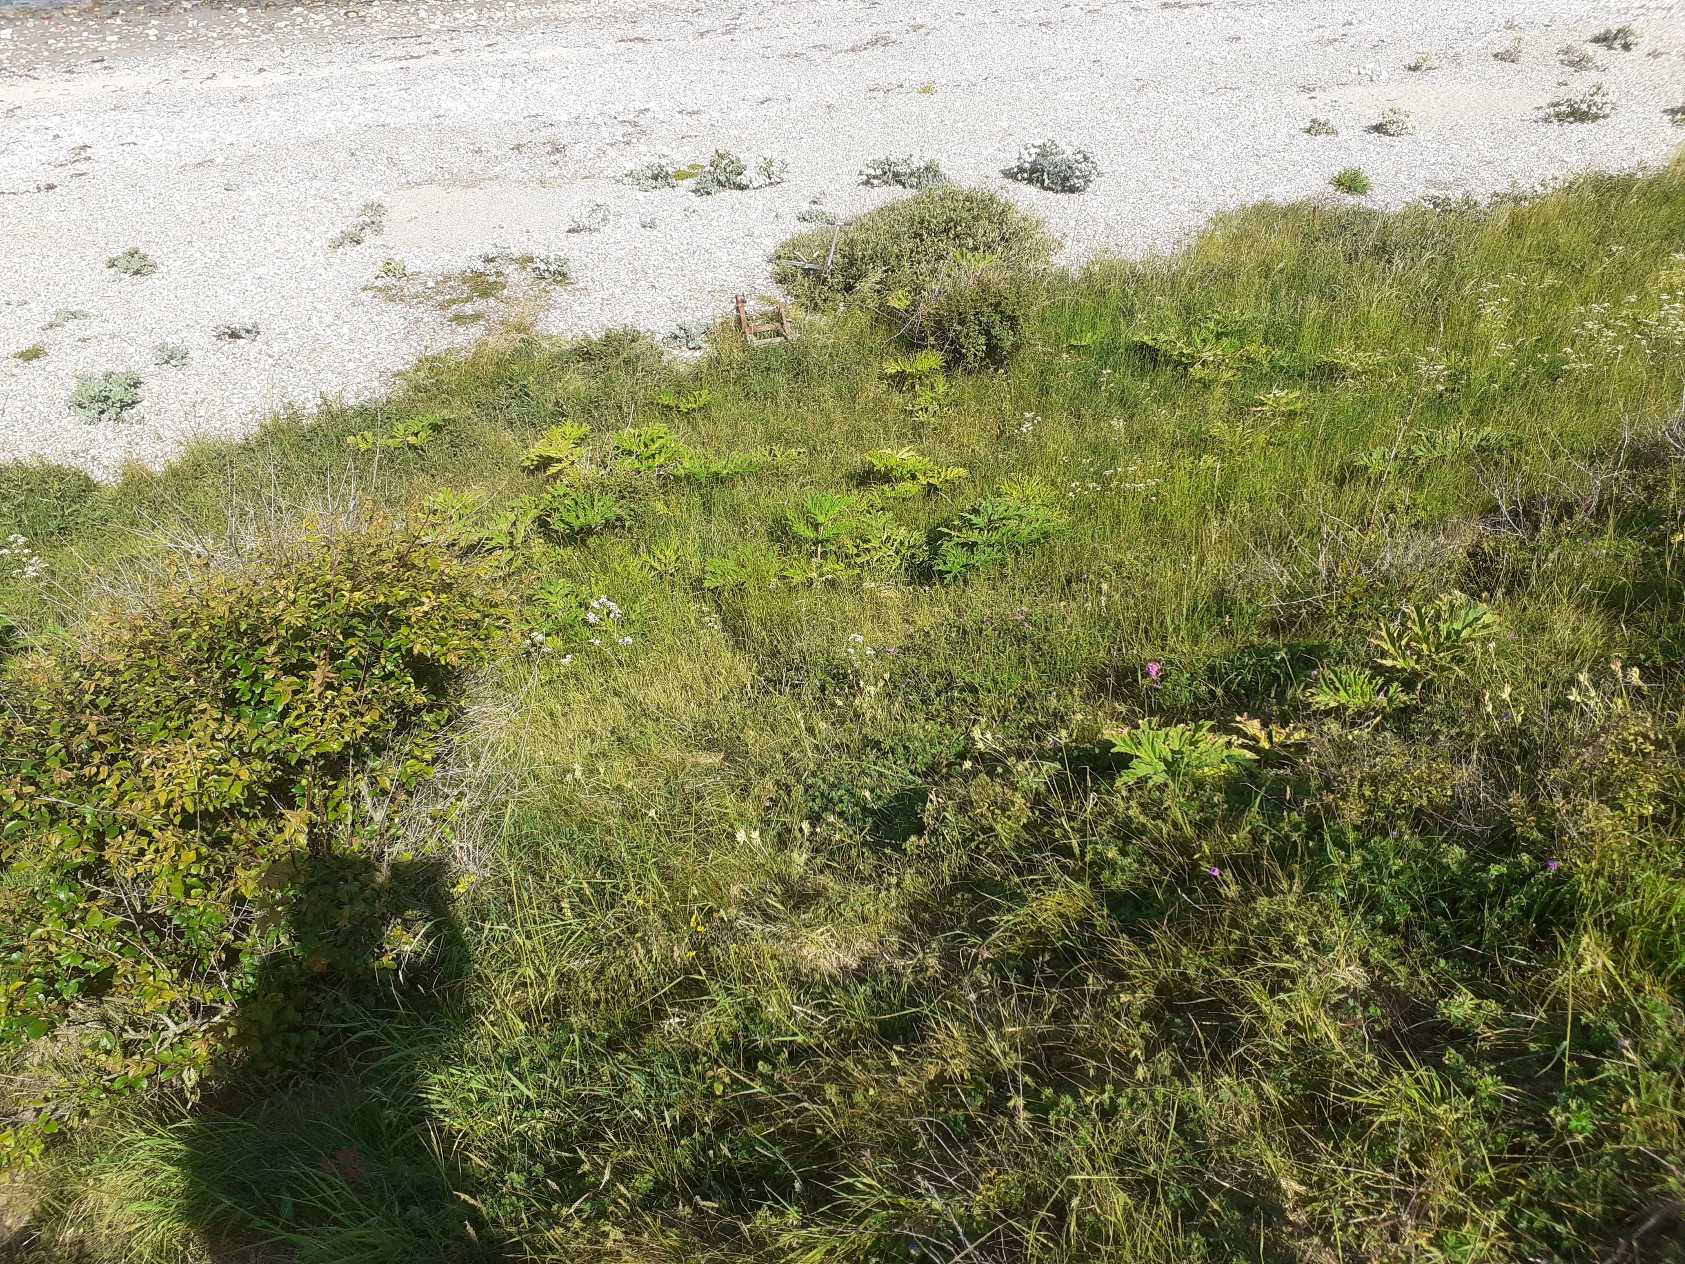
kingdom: Plantae
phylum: Tracheophyta
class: Magnoliopsida
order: Apiales
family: Apiaceae
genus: Heracleum
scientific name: Heracleum mantegazzianum
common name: Kæmpe-bjørneklo
